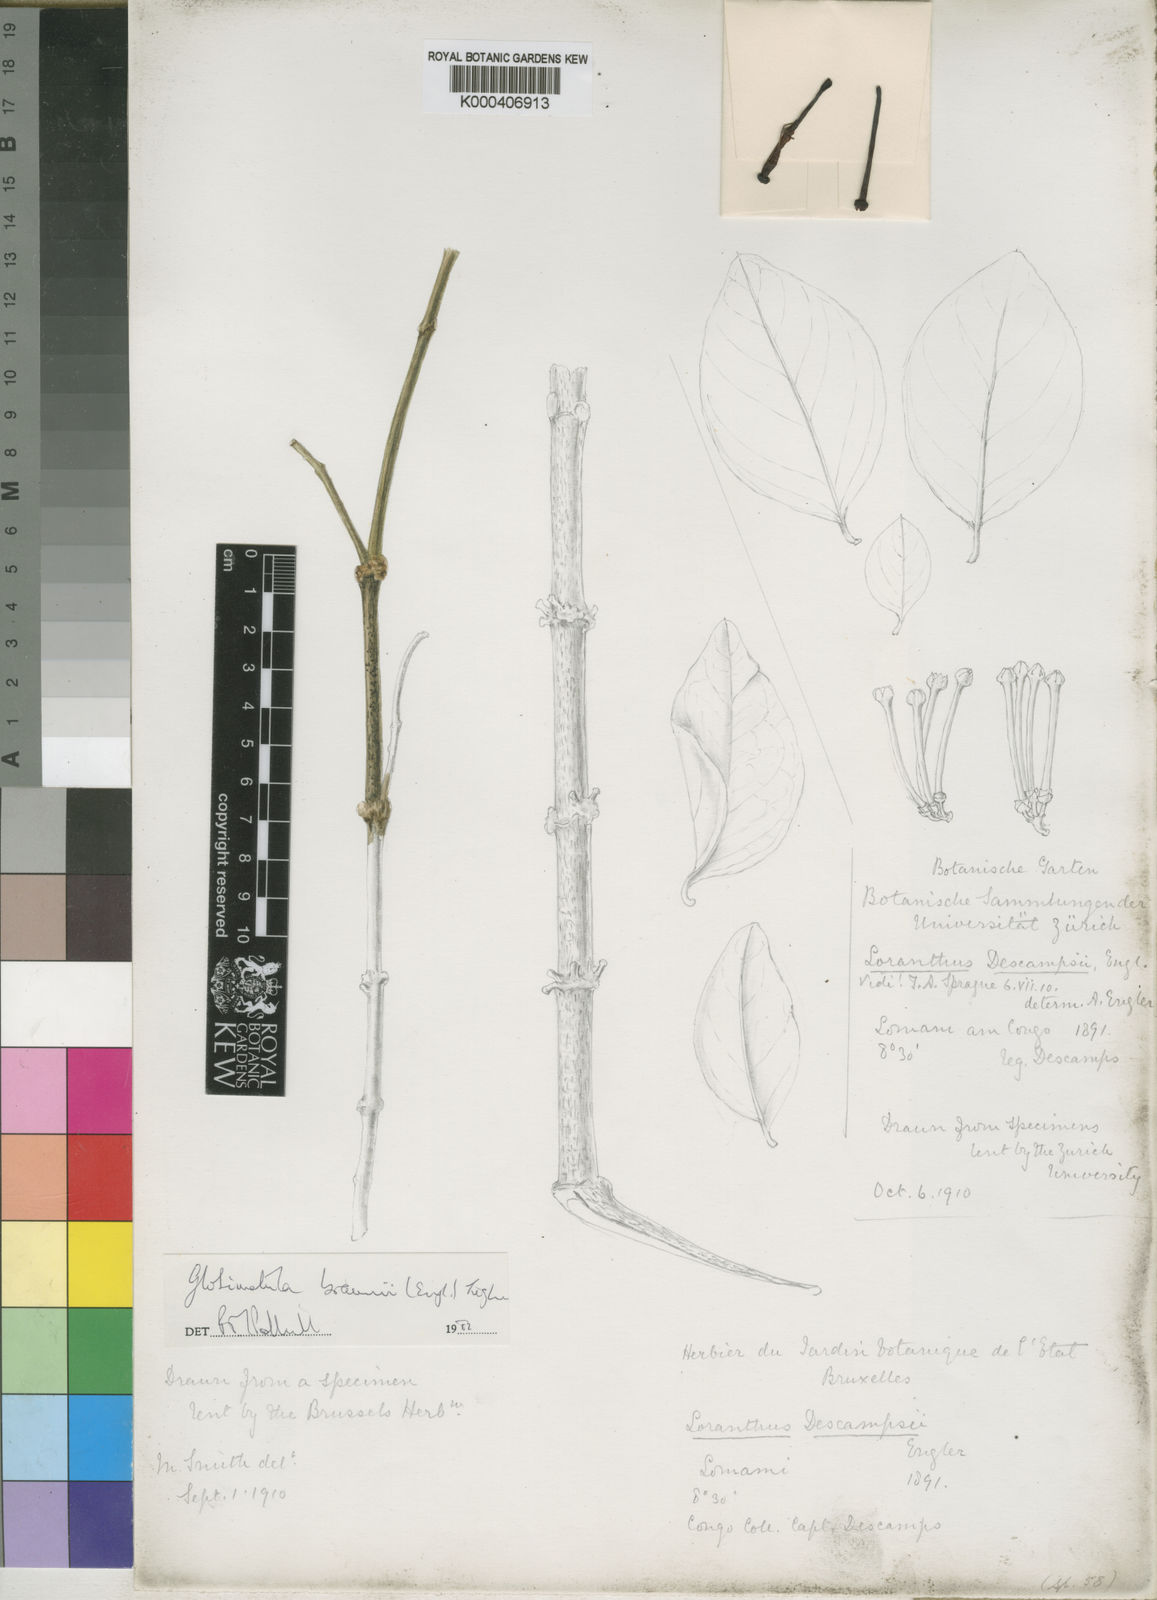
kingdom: Plantae
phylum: Tracheophyta
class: Magnoliopsida
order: Santalales
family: Loranthaceae
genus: Globimetula
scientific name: Globimetula braunii
